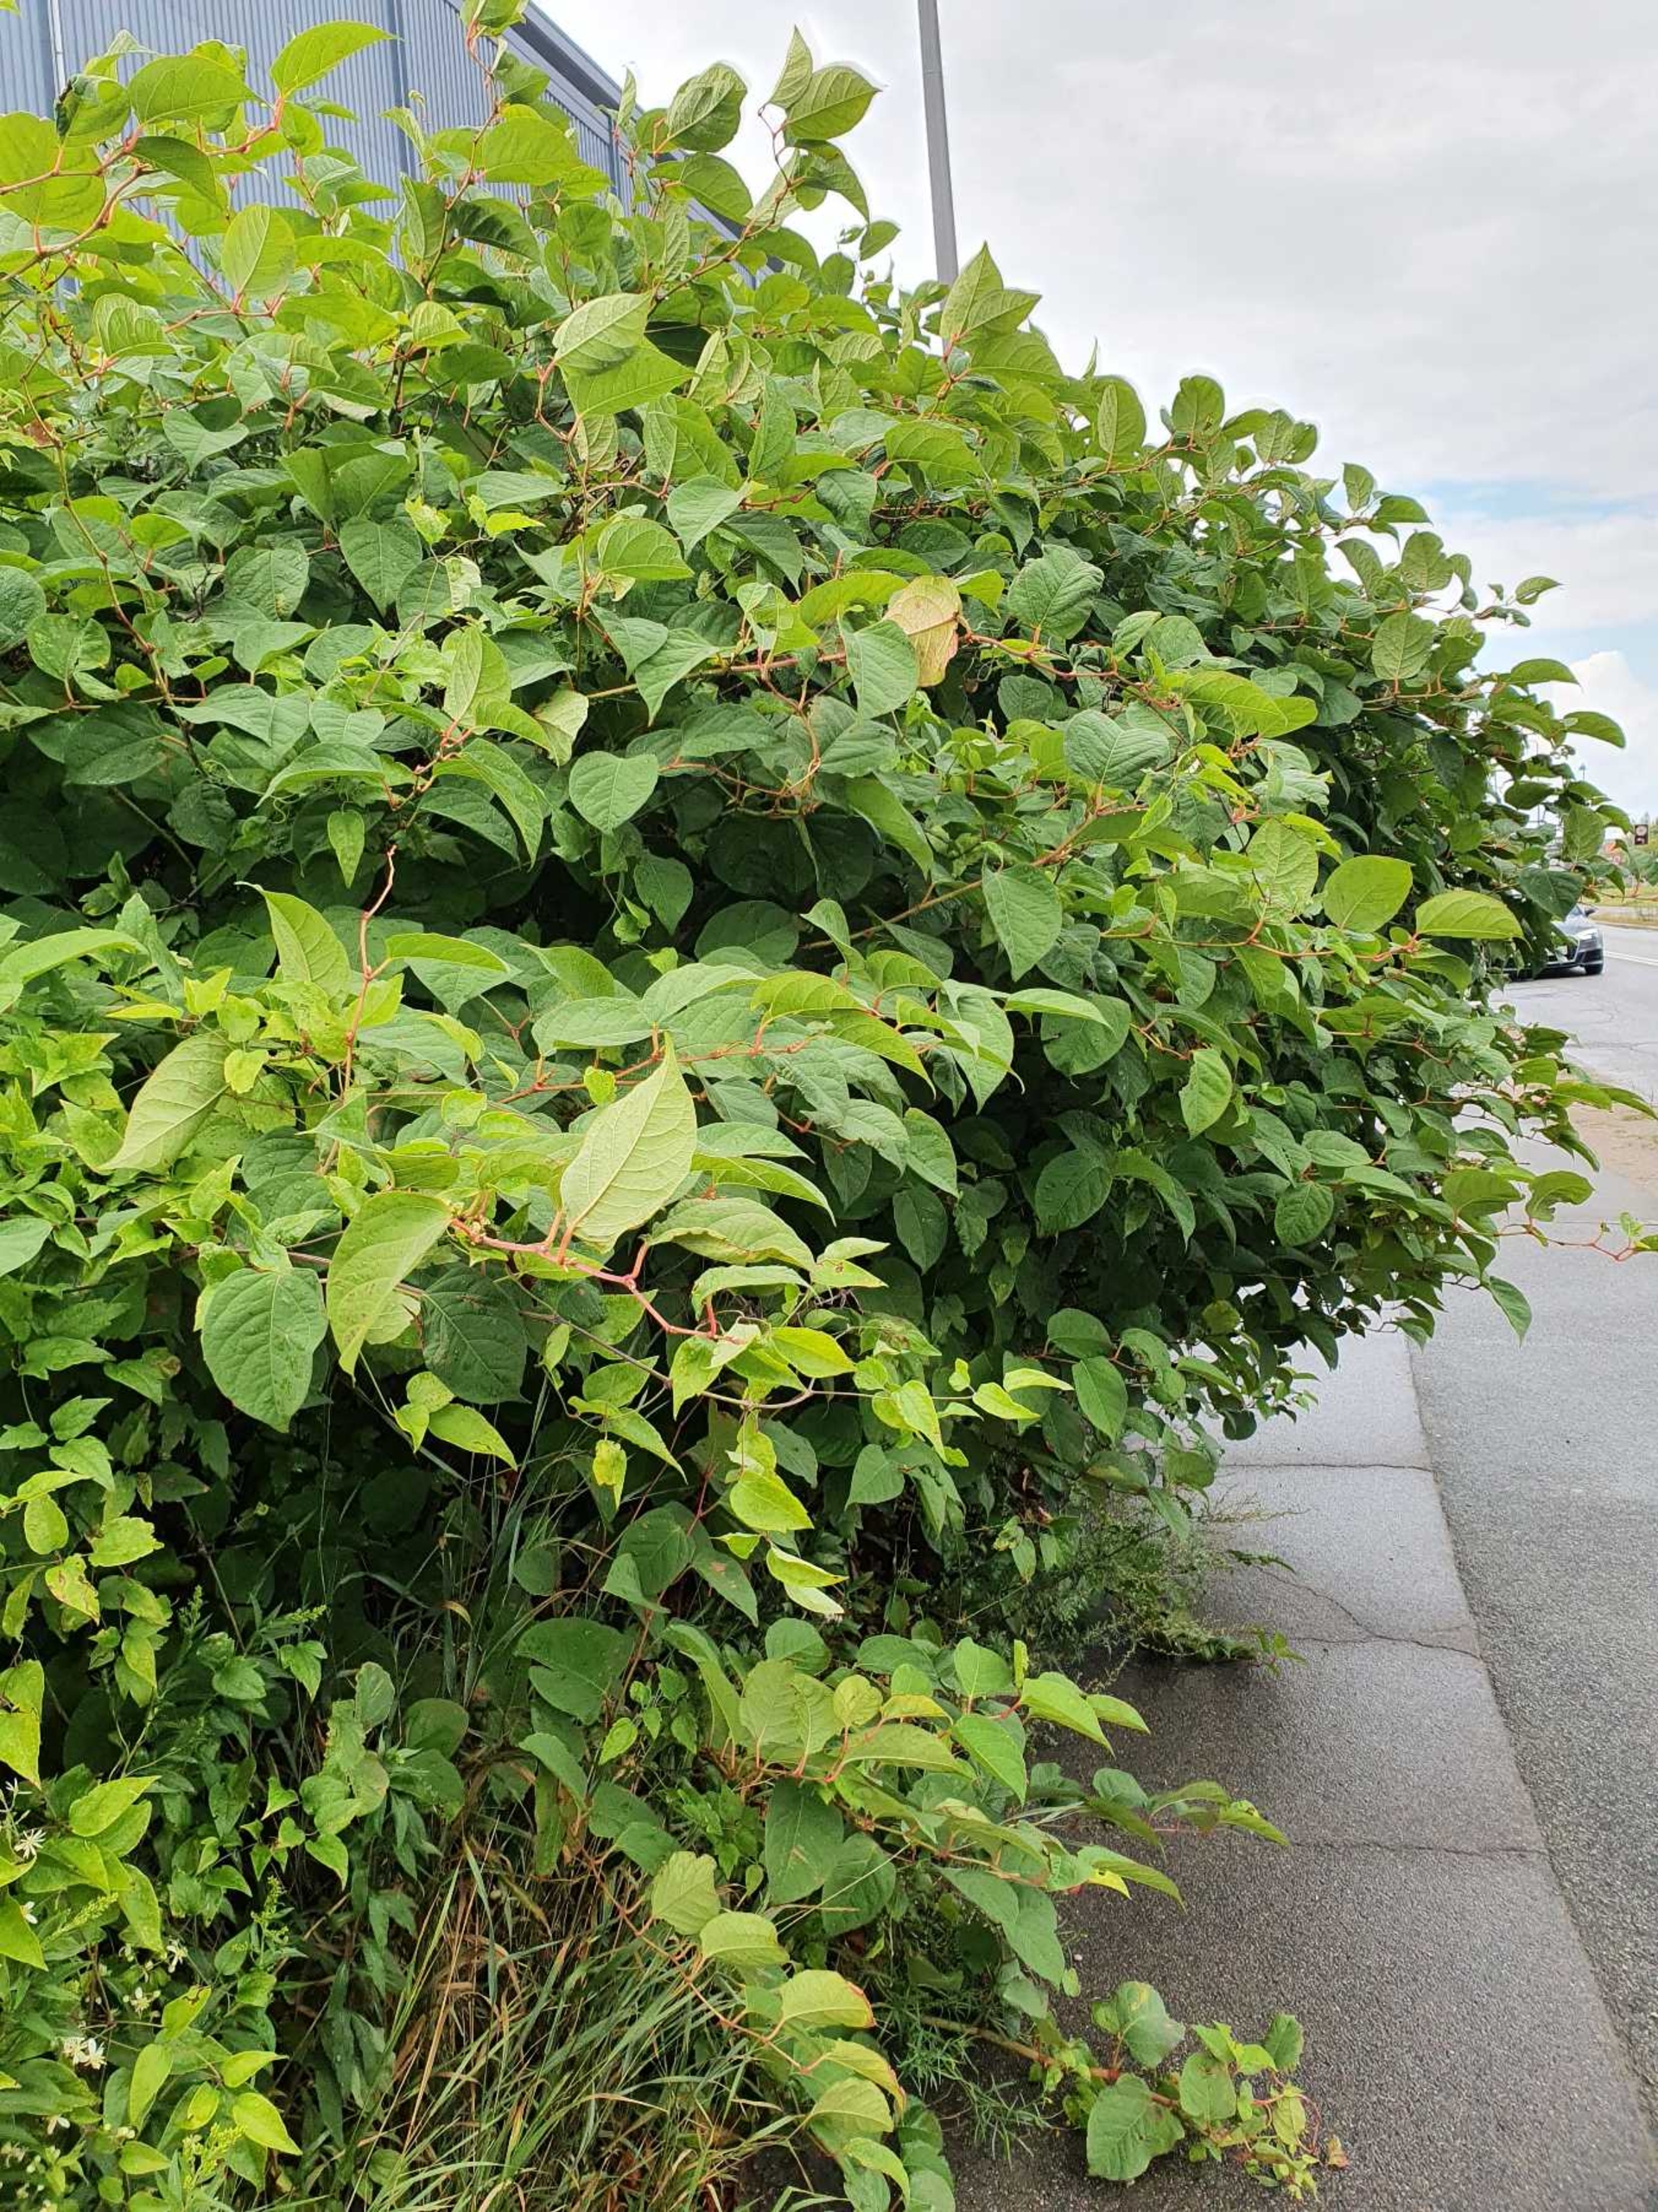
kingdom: Plantae
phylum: Tracheophyta
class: Magnoliopsida
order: Caryophyllales
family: Polygonaceae
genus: Reynoutria
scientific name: Reynoutria japonica
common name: Japan-pileurt
